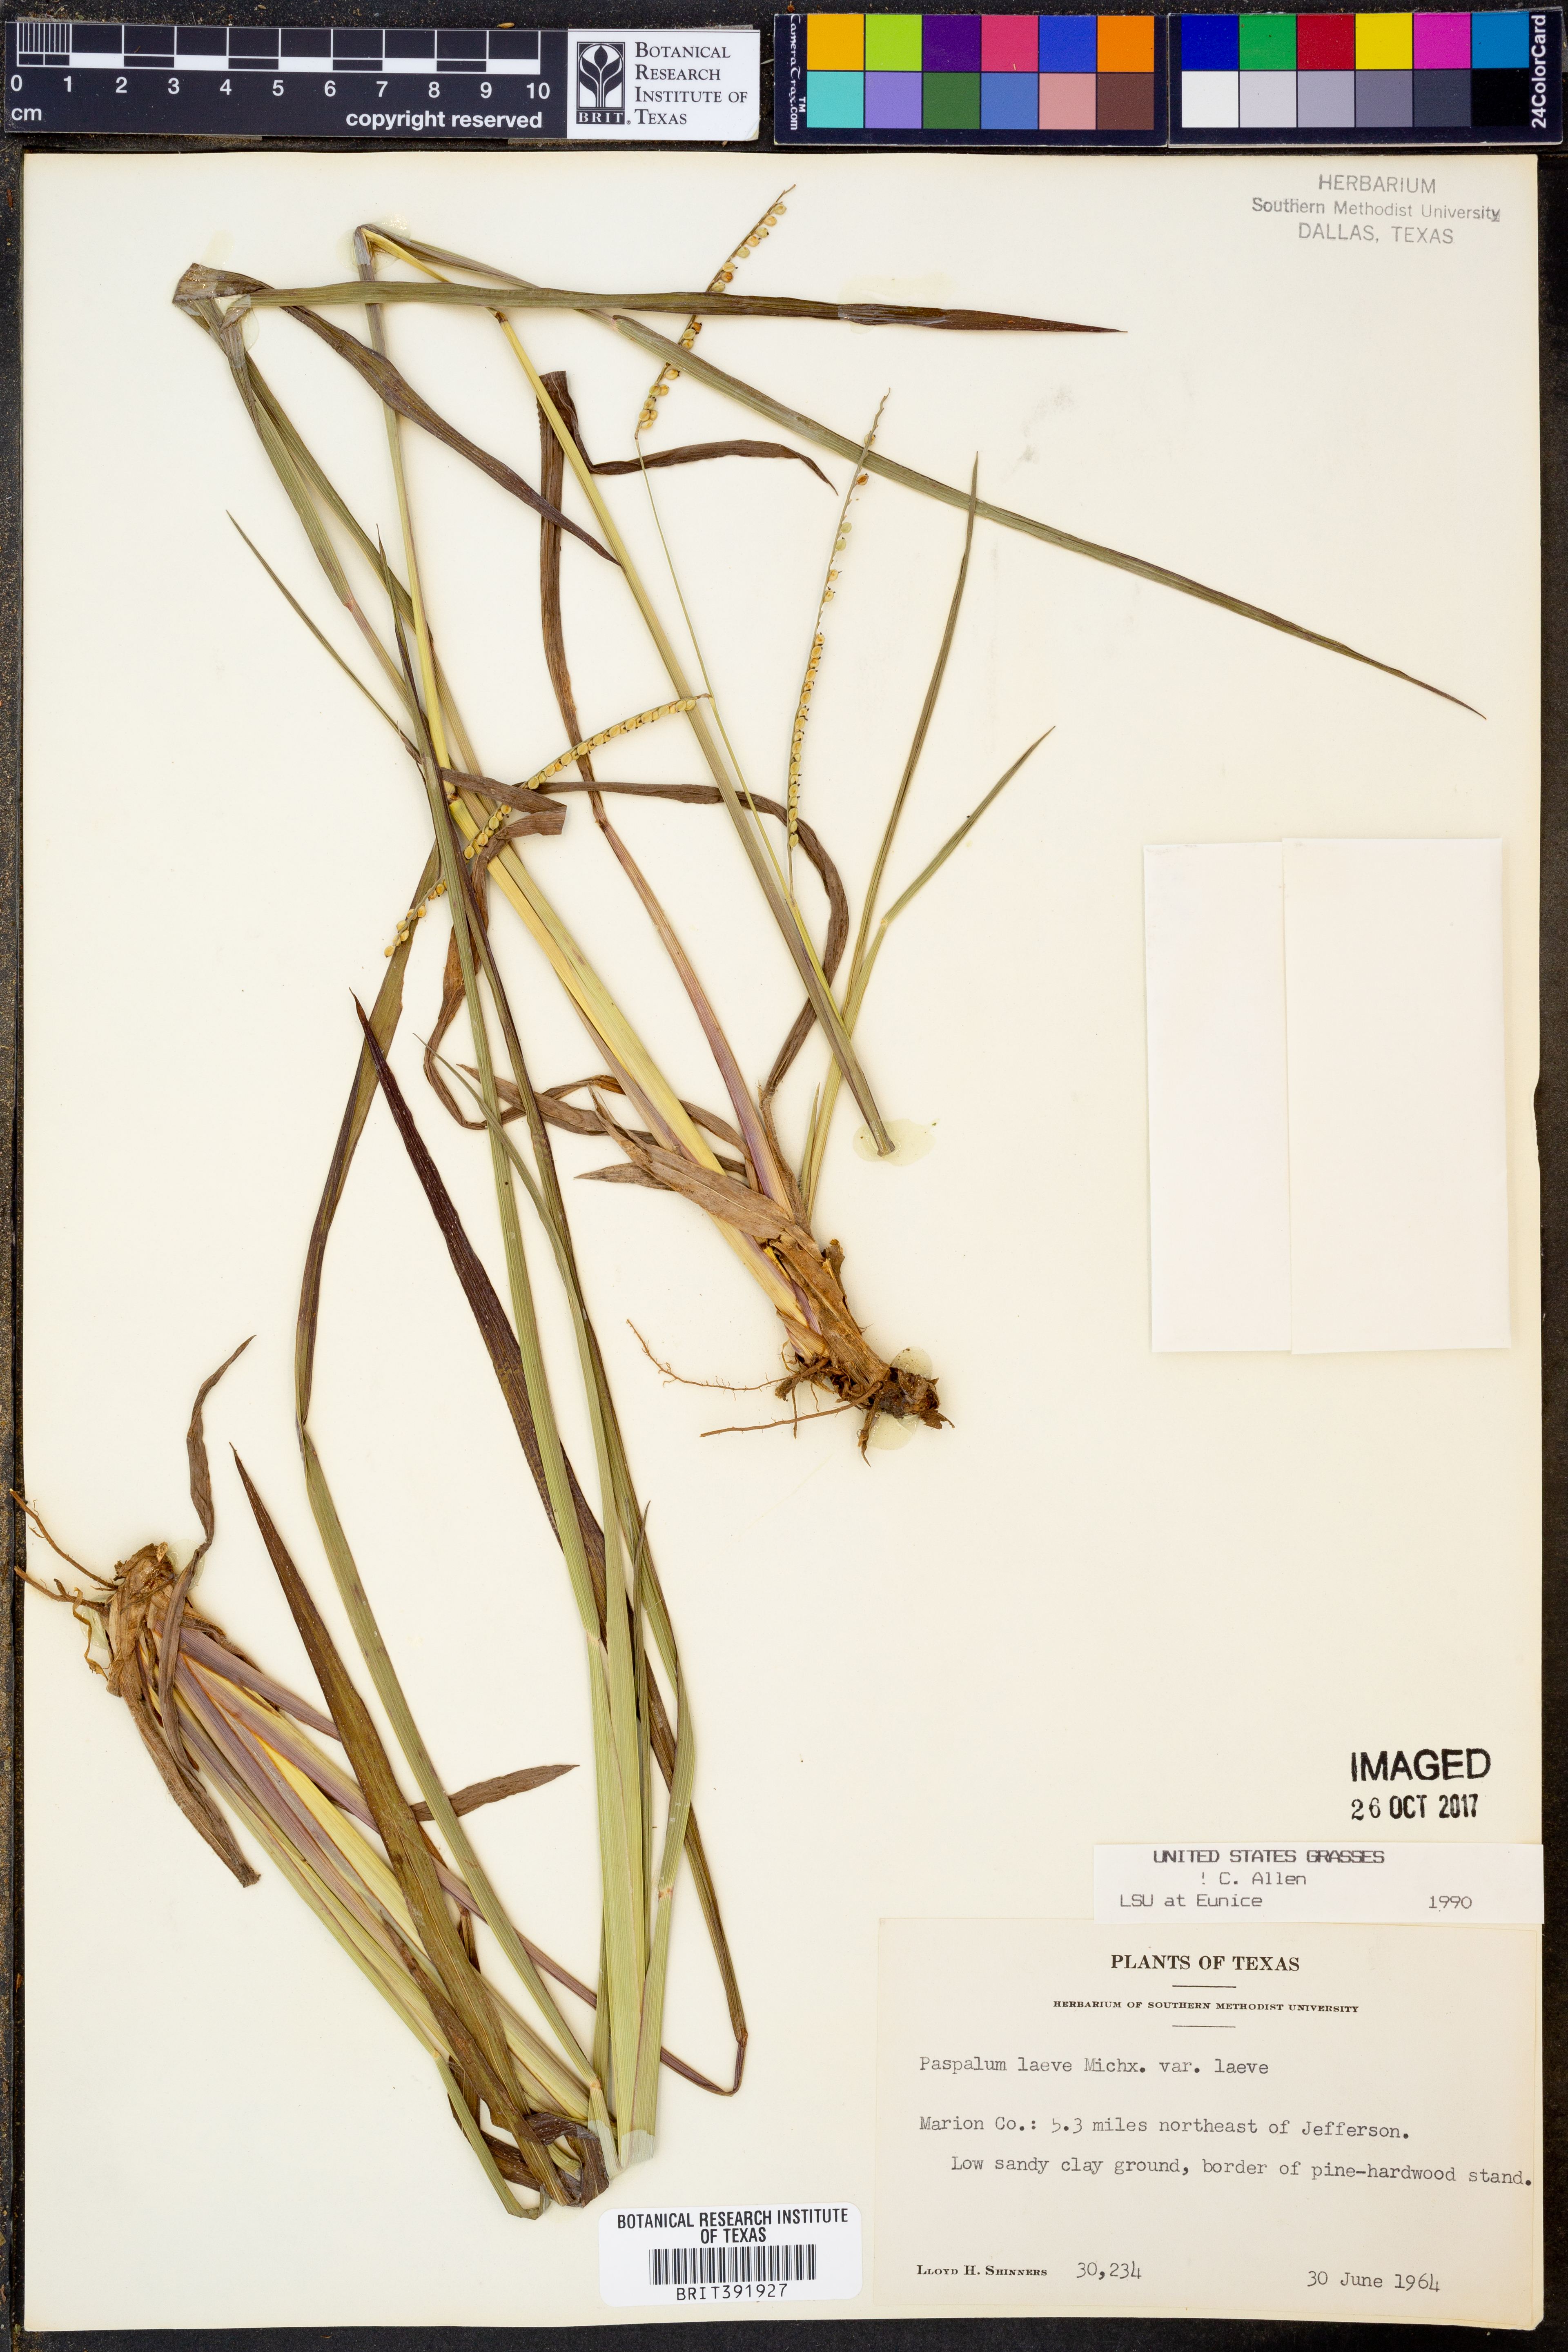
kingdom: Plantae
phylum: Tracheophyta
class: Liliopsida
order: Poales
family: Poaceae
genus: Paspalum
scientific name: Paspalum laeve
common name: Field paspalum
